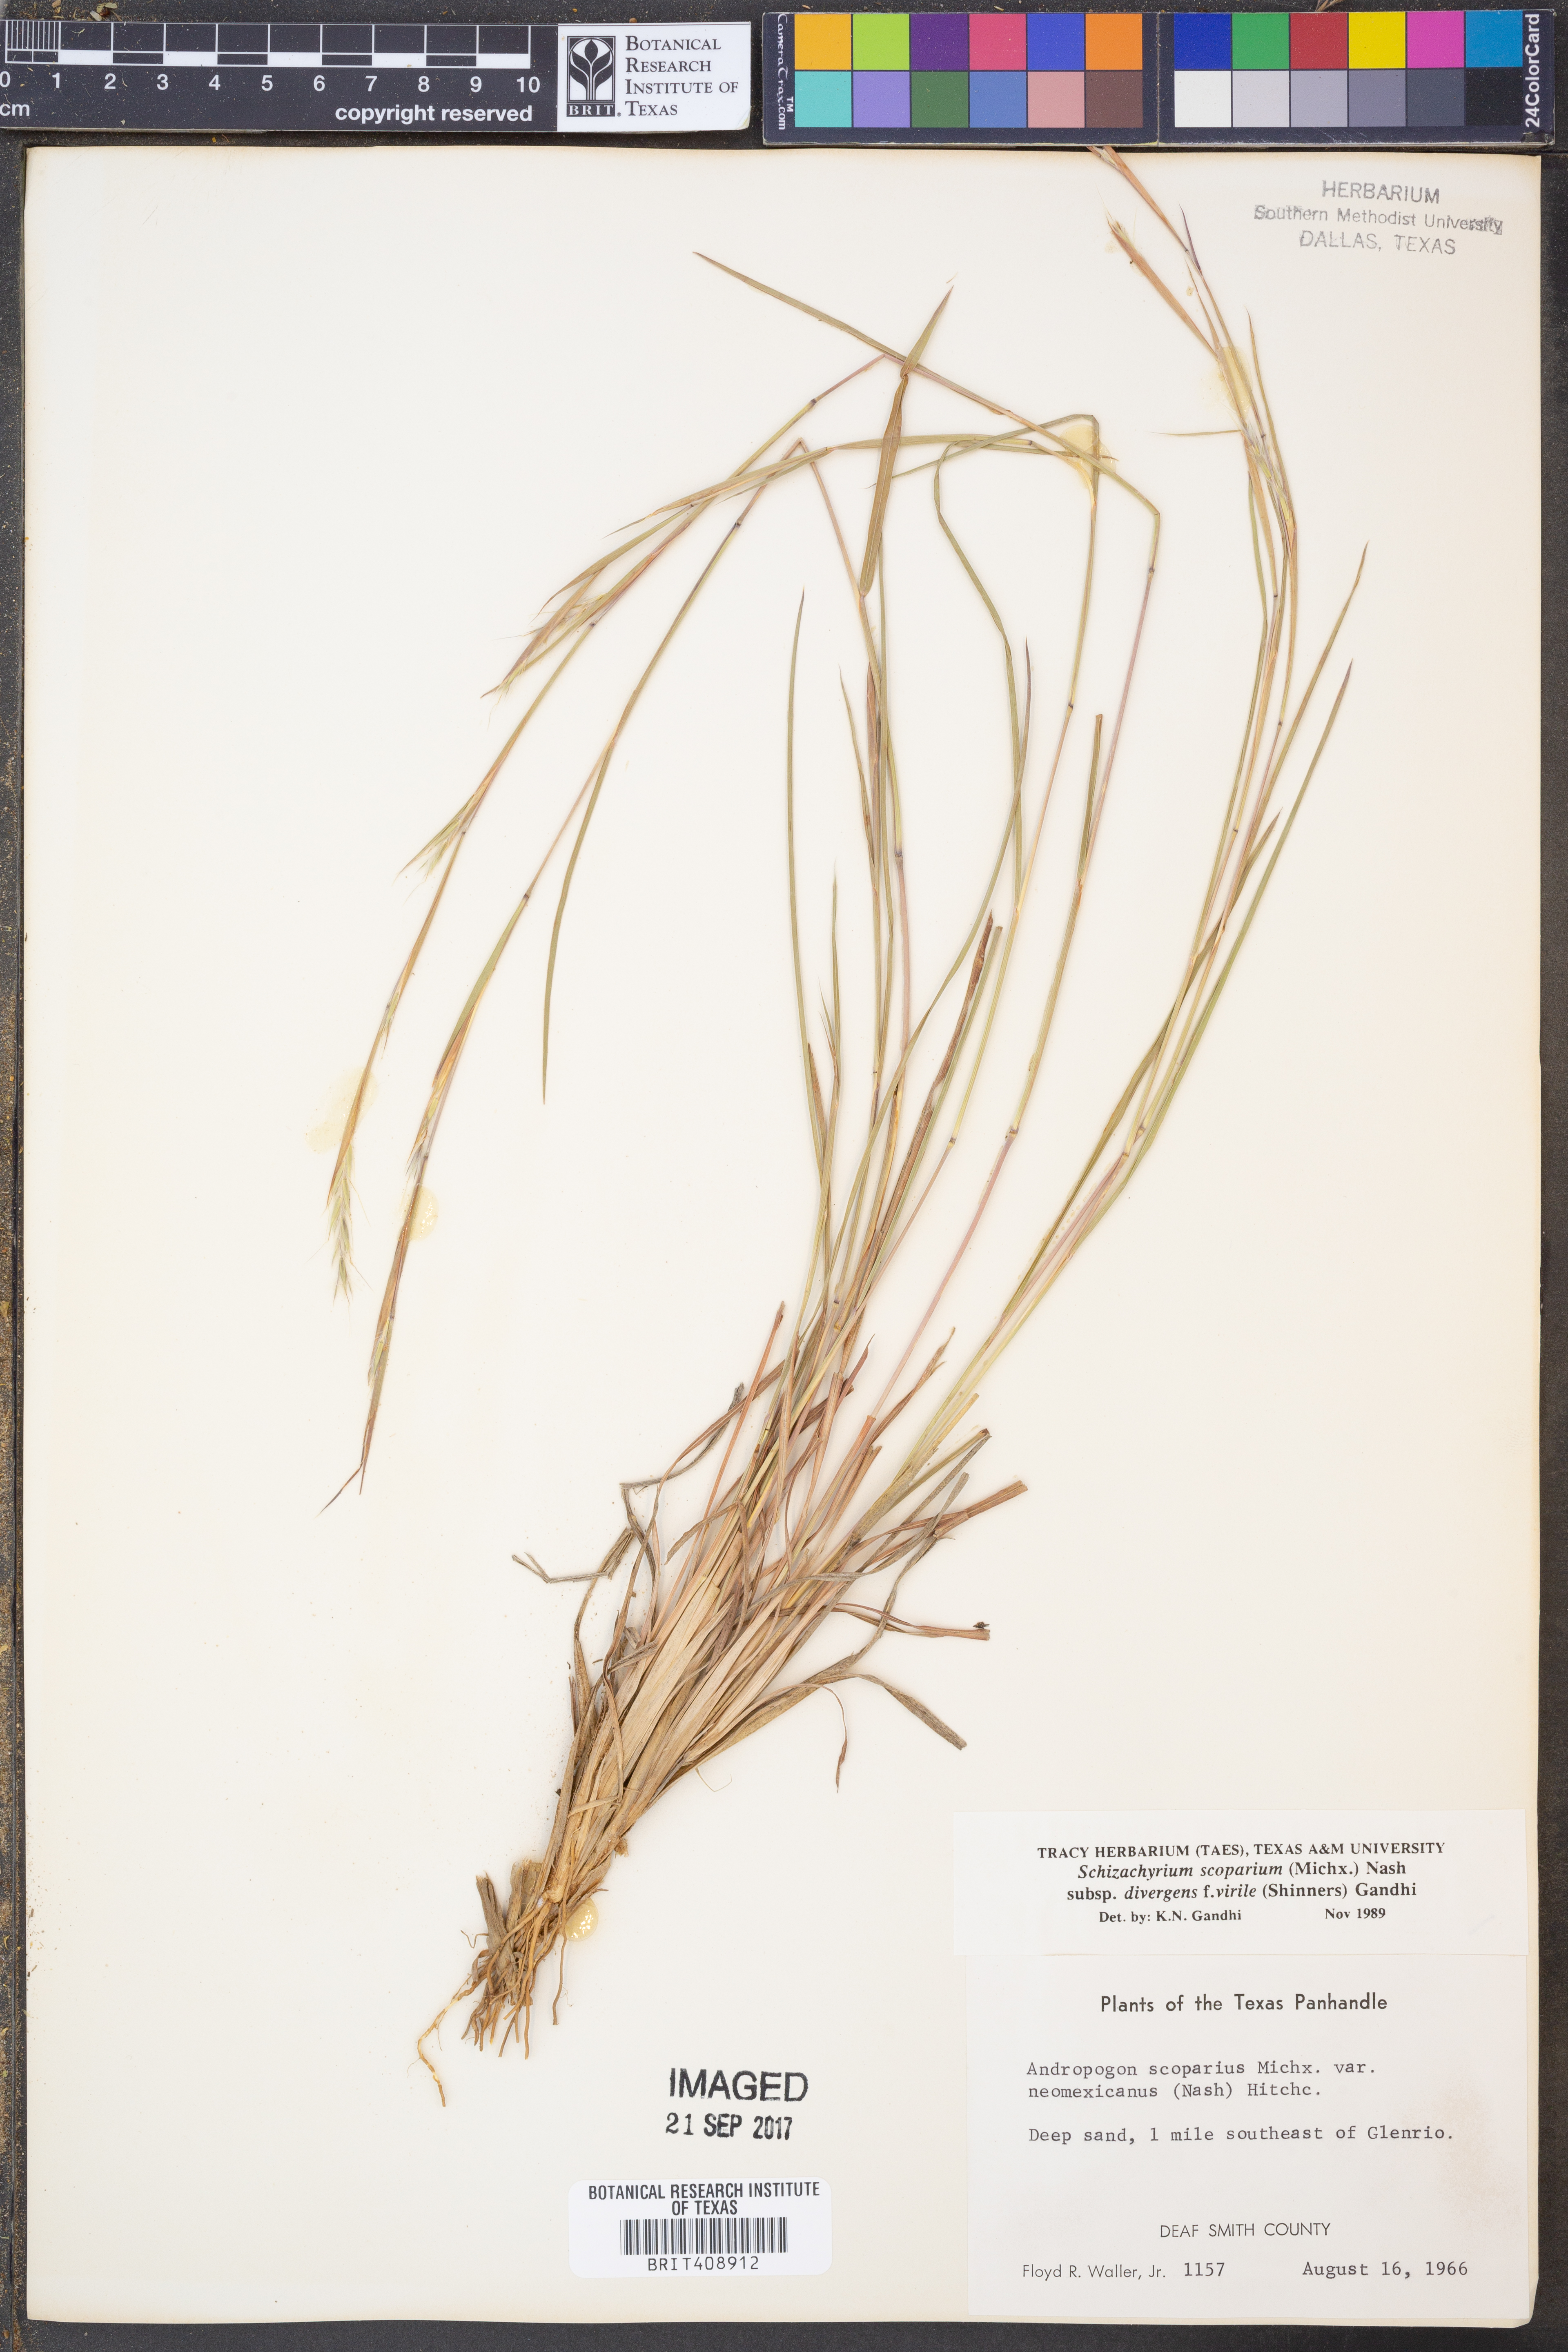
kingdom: Plantae
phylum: Tracheophyta
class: Liliopsida
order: Poales
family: Poaceae
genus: Schizachyrium
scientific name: Schizachyrium scoparium
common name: Little bluestem
